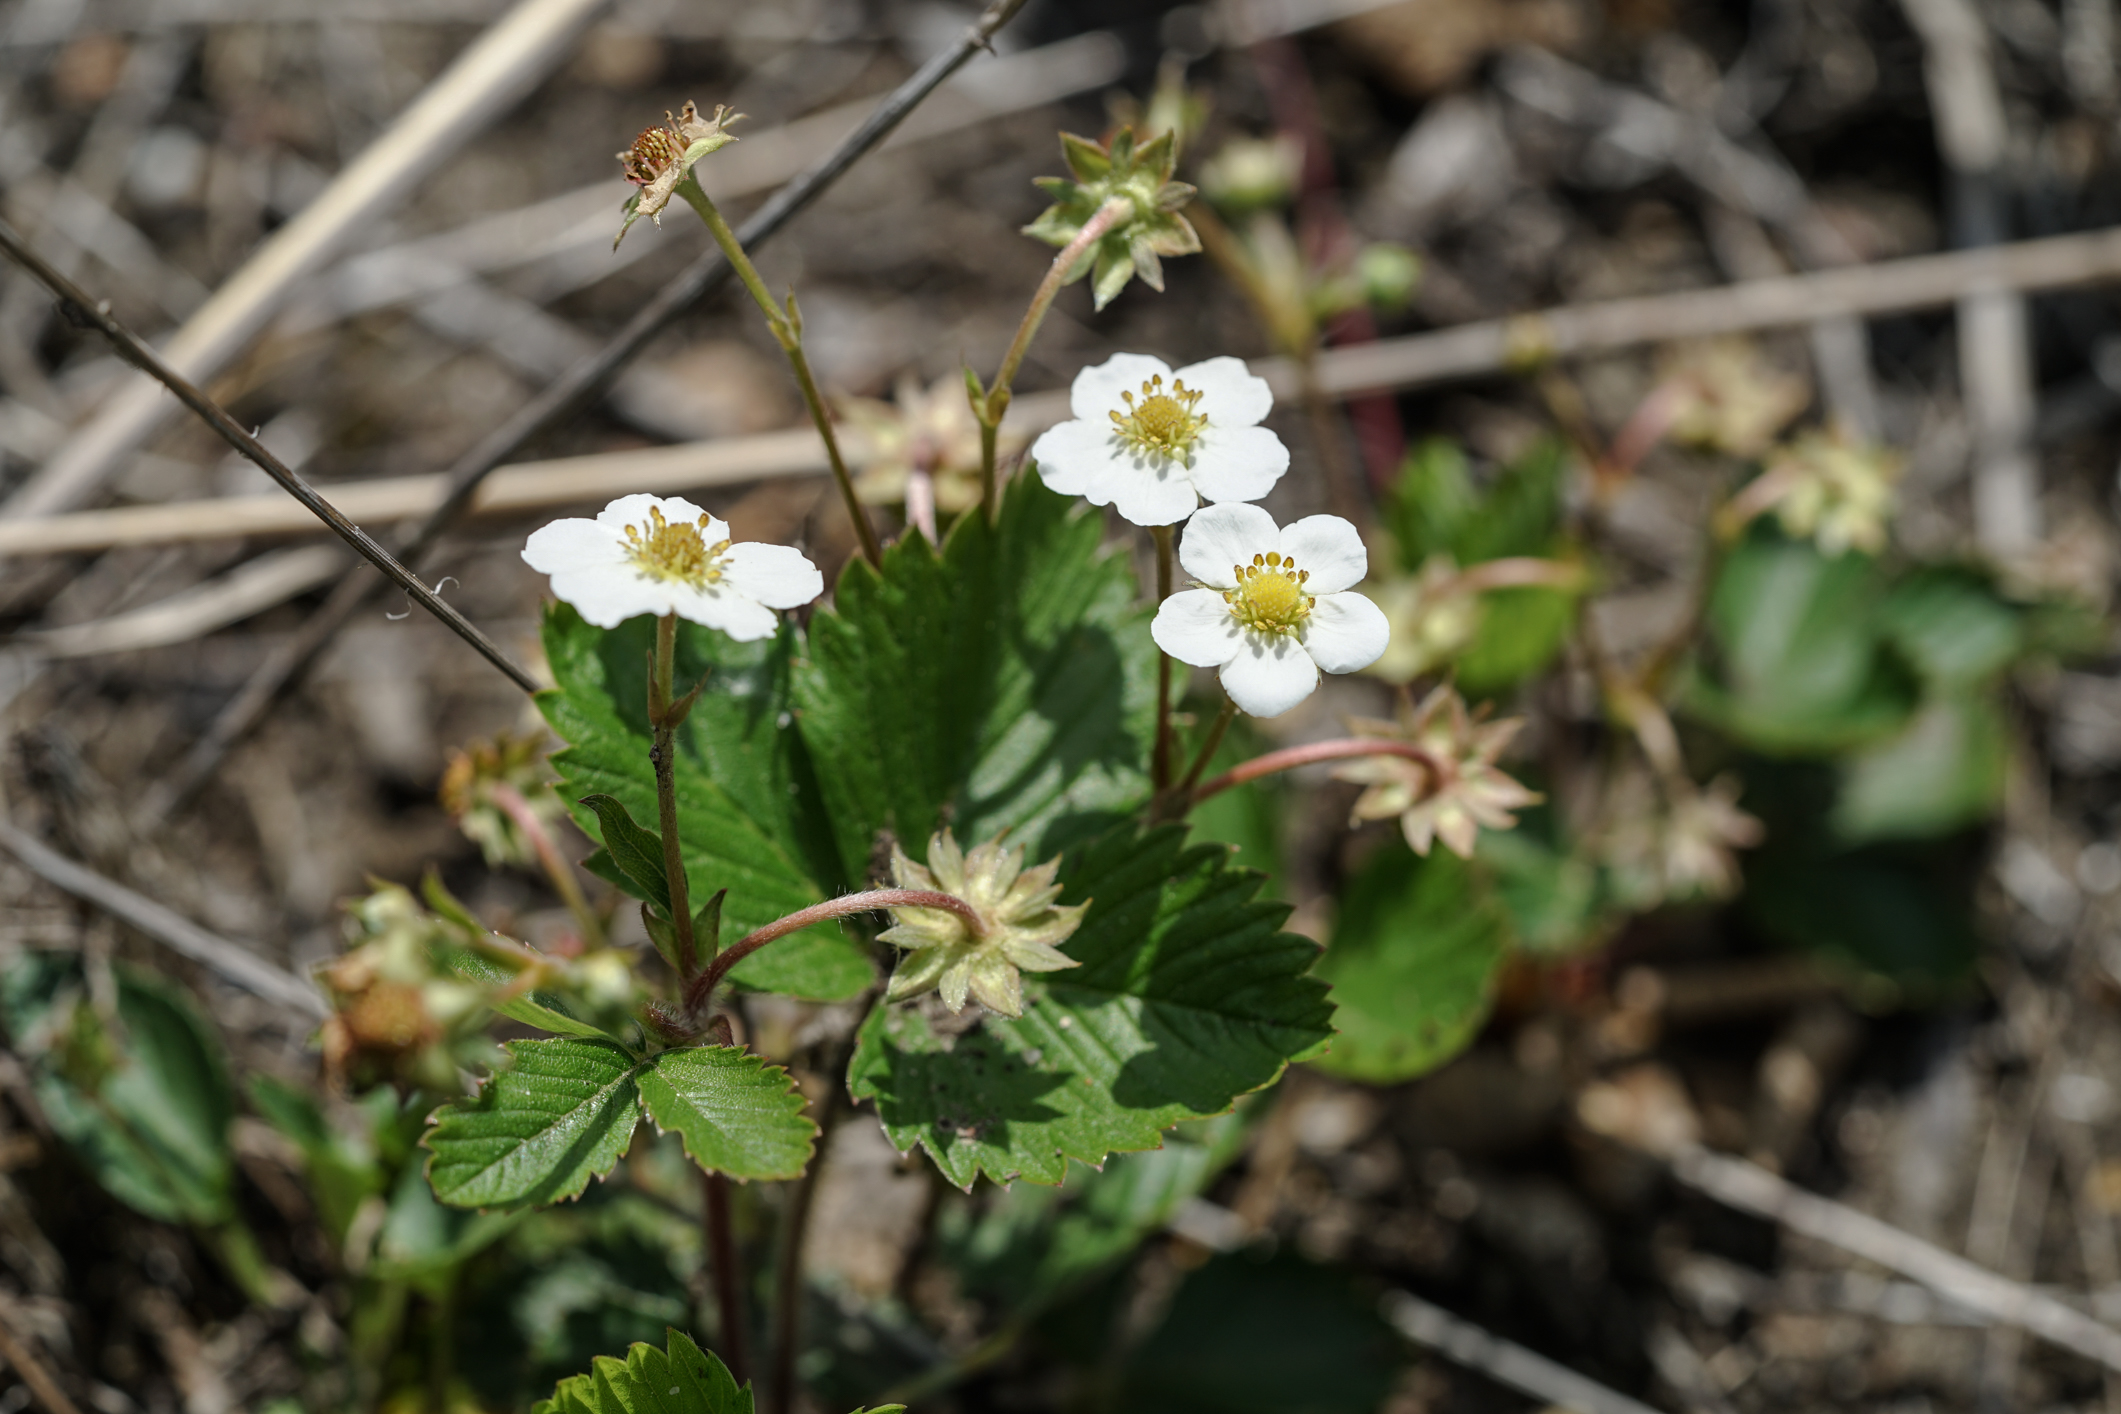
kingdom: Plantae
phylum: Tracheophyta
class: Magnoliopsida
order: Rosales
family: Rosaceae
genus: Fragaria
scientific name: Fragaria vesca
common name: Wild strawberry
